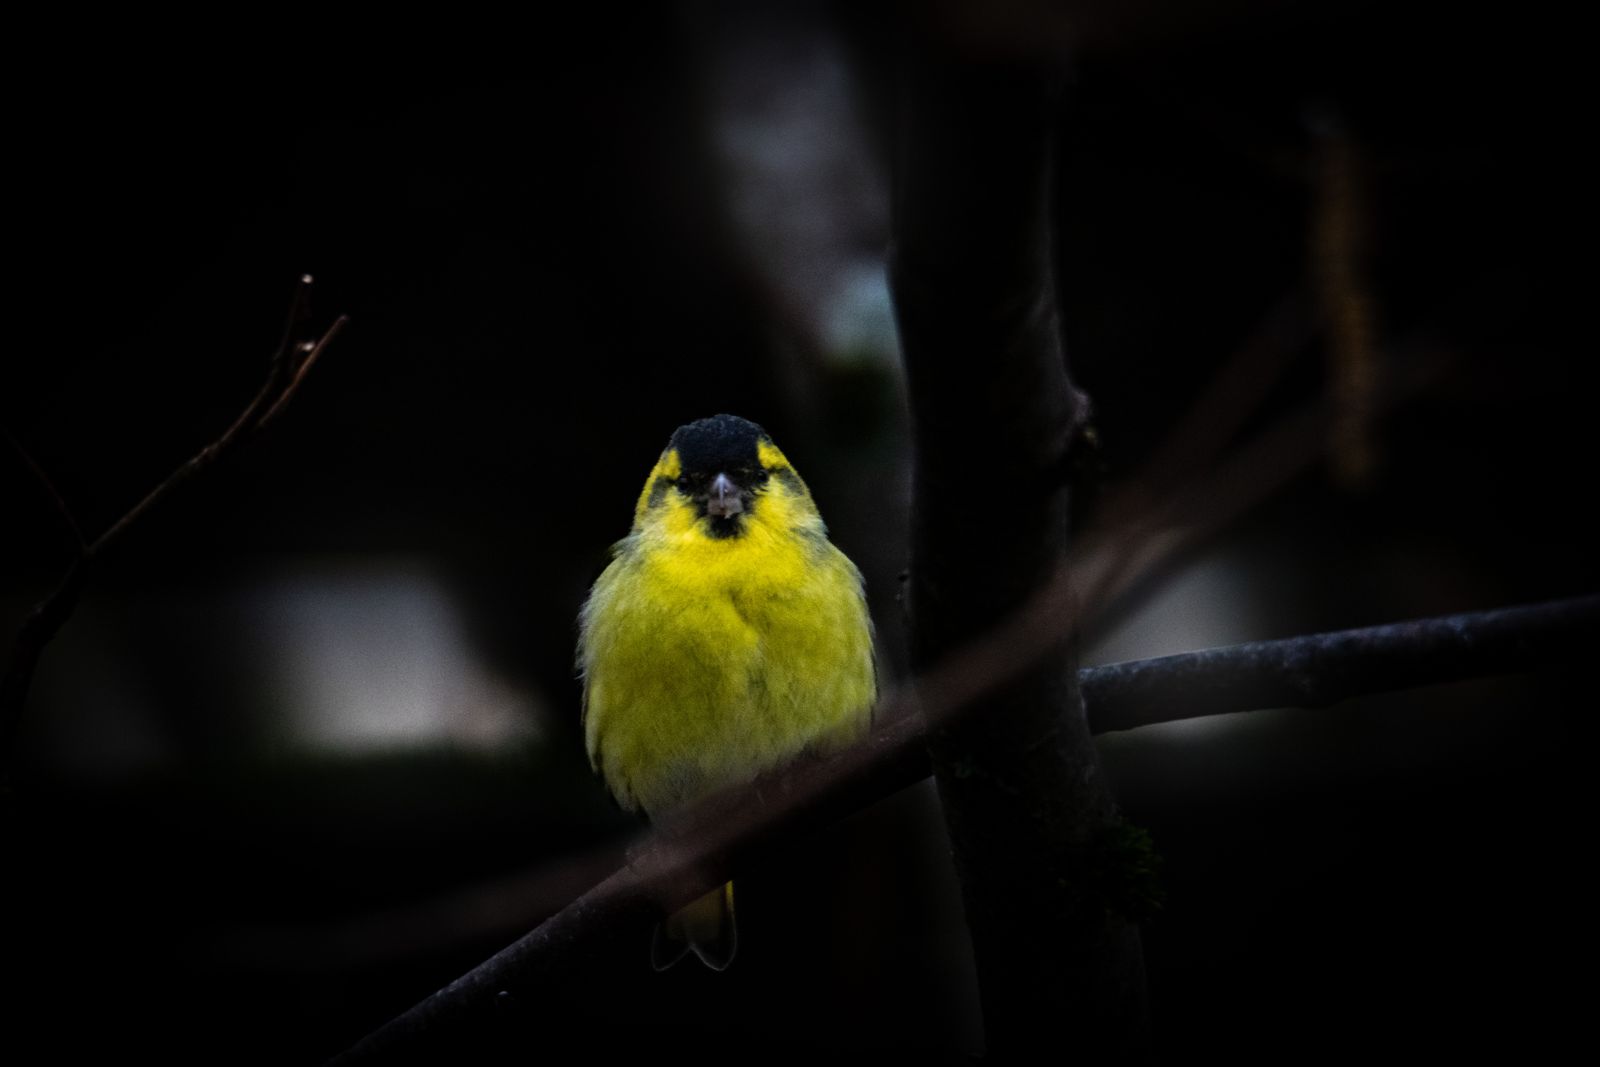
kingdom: Animalia
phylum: Chordata
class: Aves
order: Passeriformes
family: Fringillidae
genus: Spinus
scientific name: Spinus spinus
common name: Eurasian siskin
